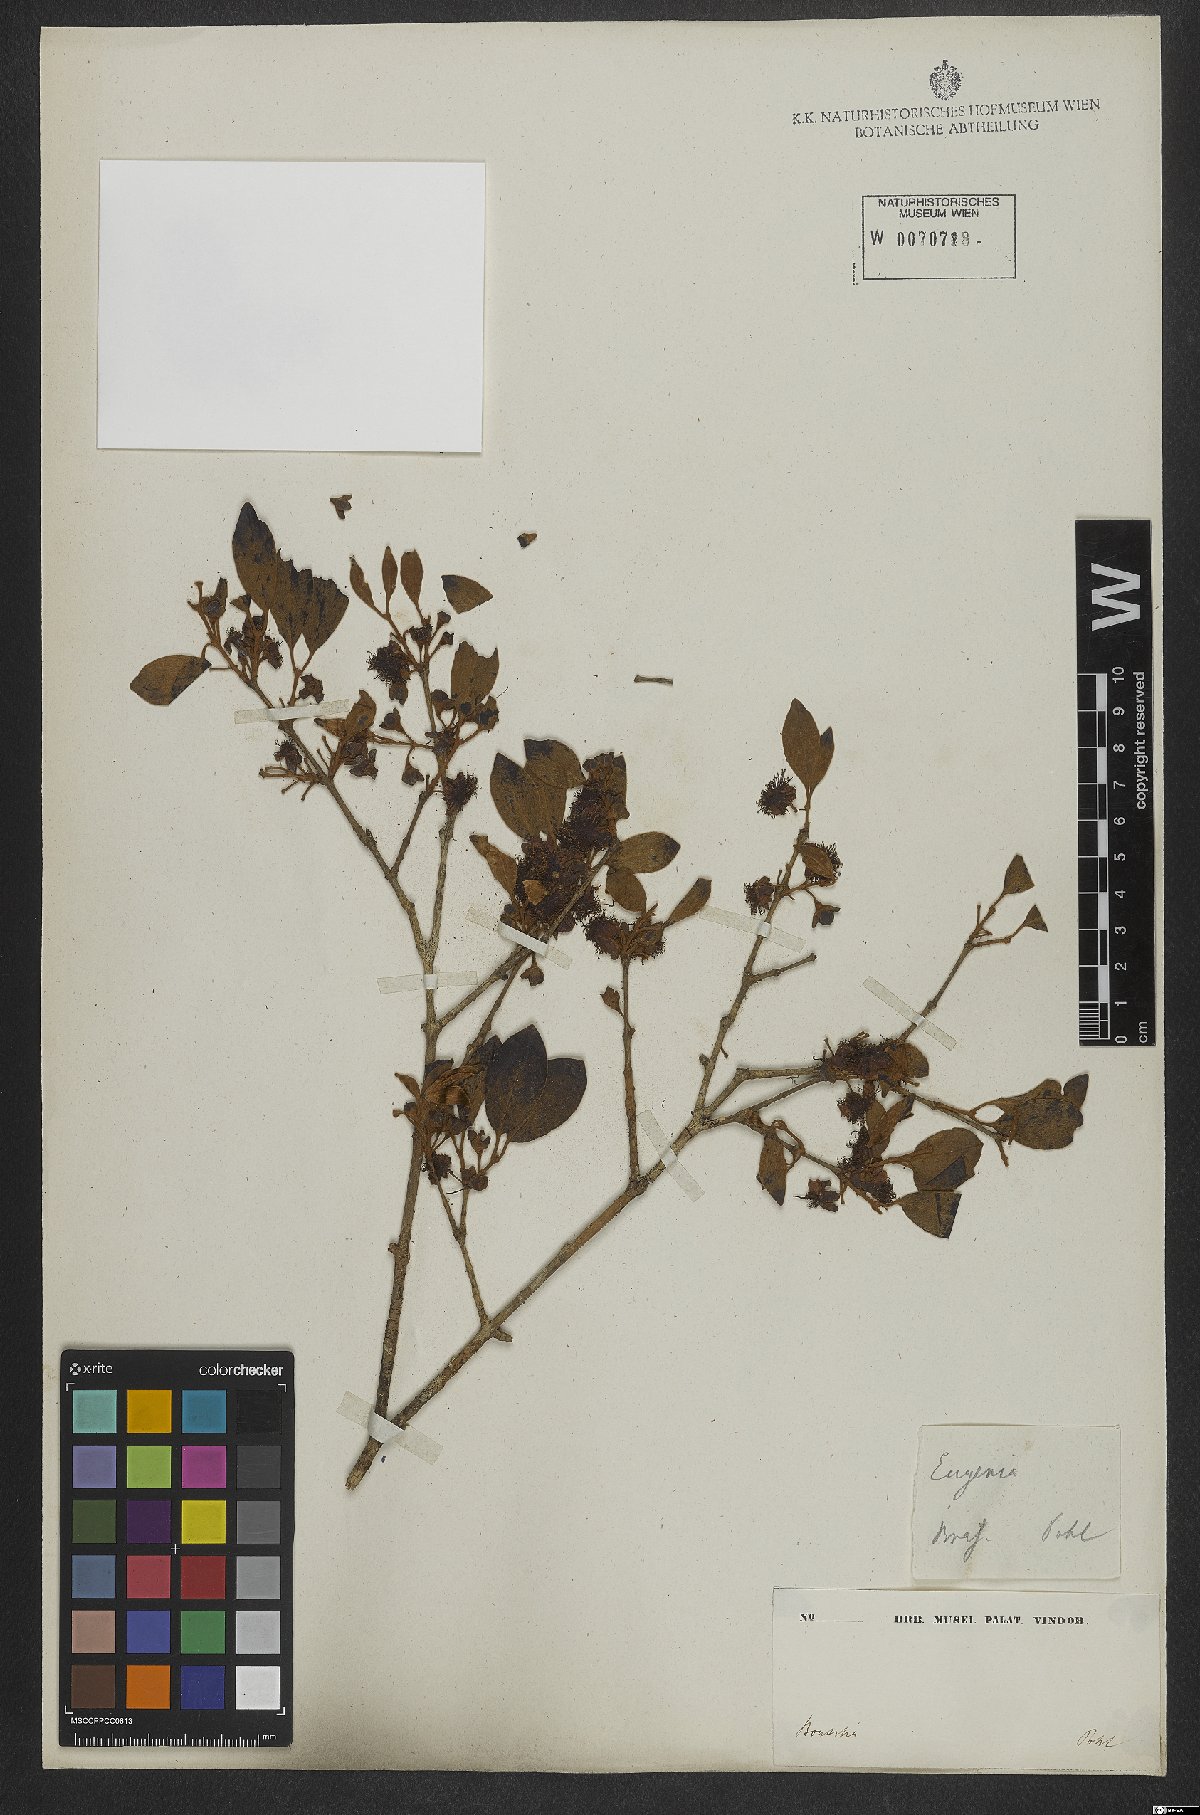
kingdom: Plantae
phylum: Tracheophyta
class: Magnoliopsida
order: Myrtales
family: Myrtaceae
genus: Pimenta
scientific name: Pimenta pseudocaryophyllus
